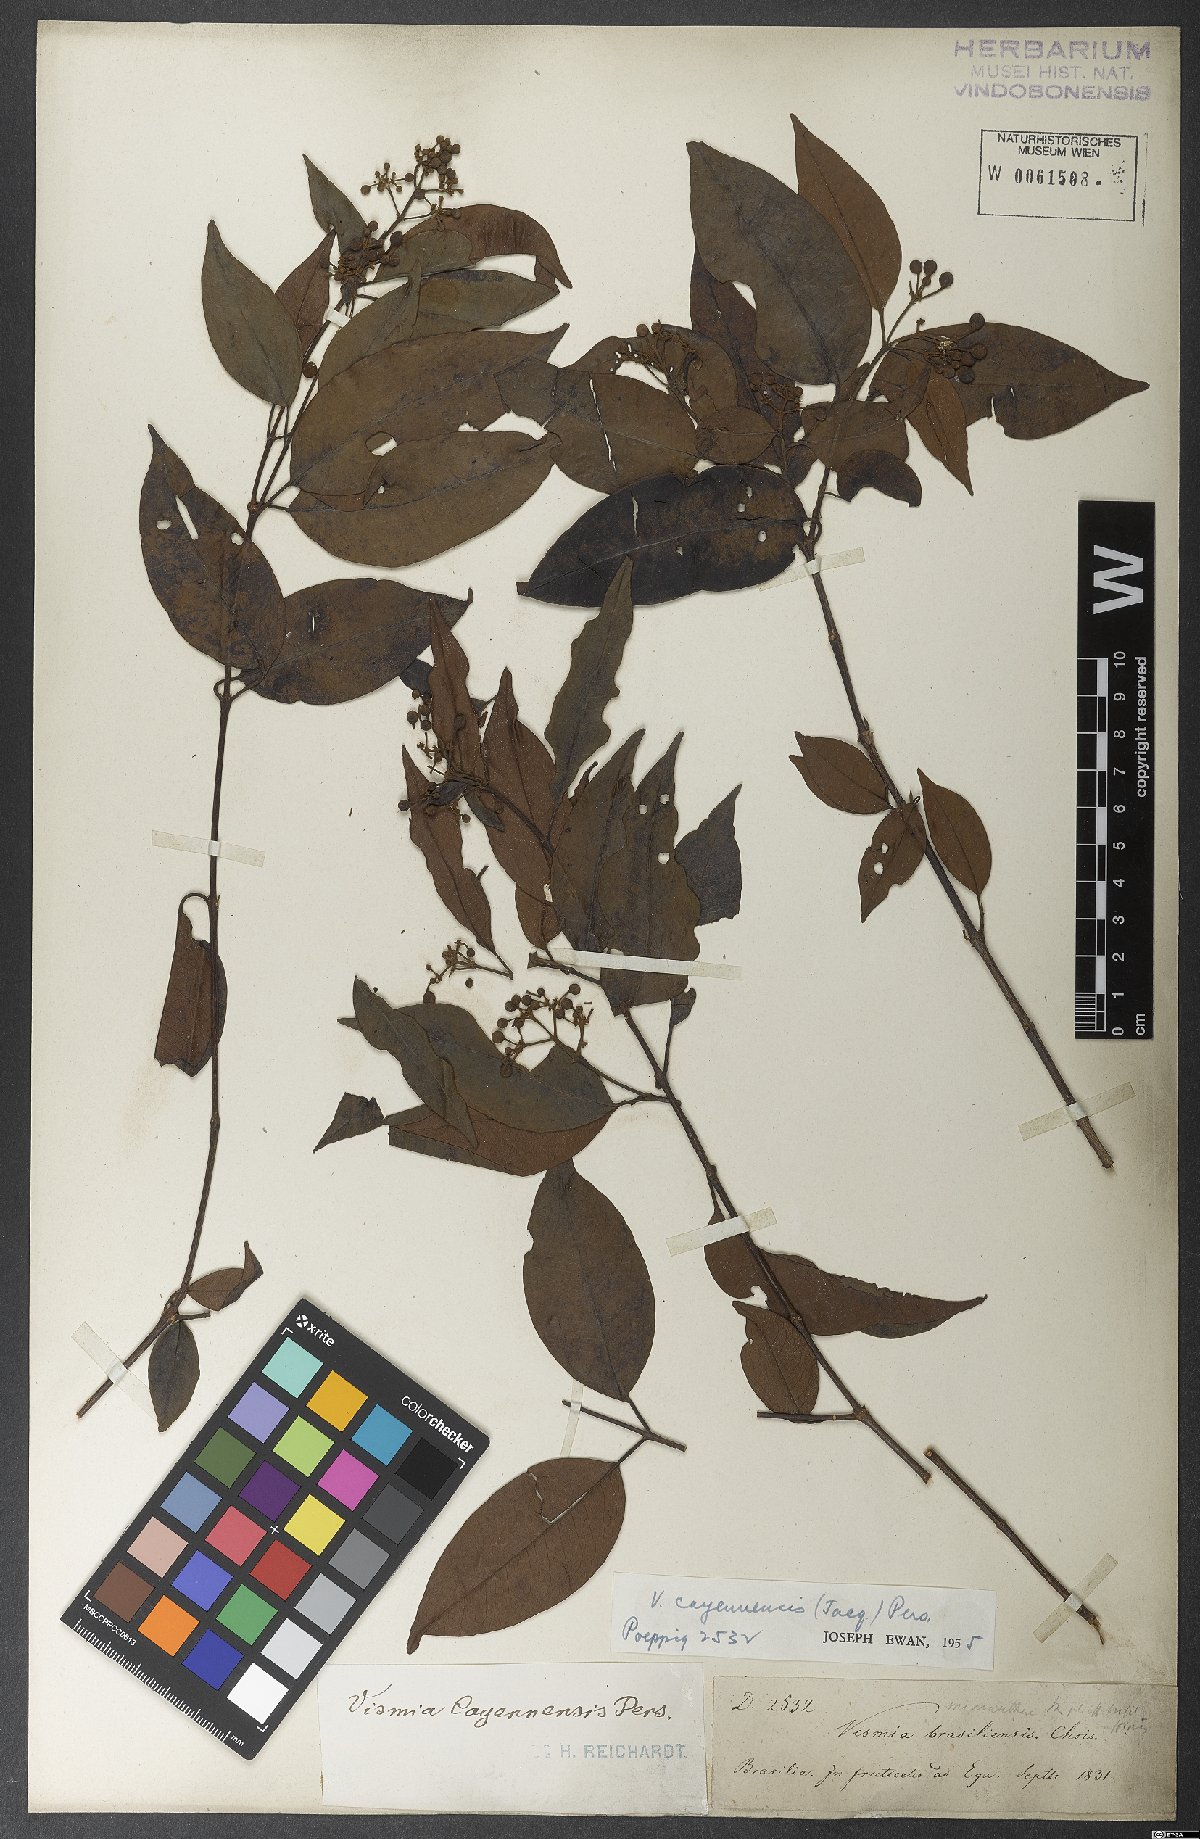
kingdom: Plantae
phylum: Tracheophyta
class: Magnoliopsida
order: Malpighiales
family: Hypericaceae
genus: Vismia
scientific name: Vismia cayennensis
